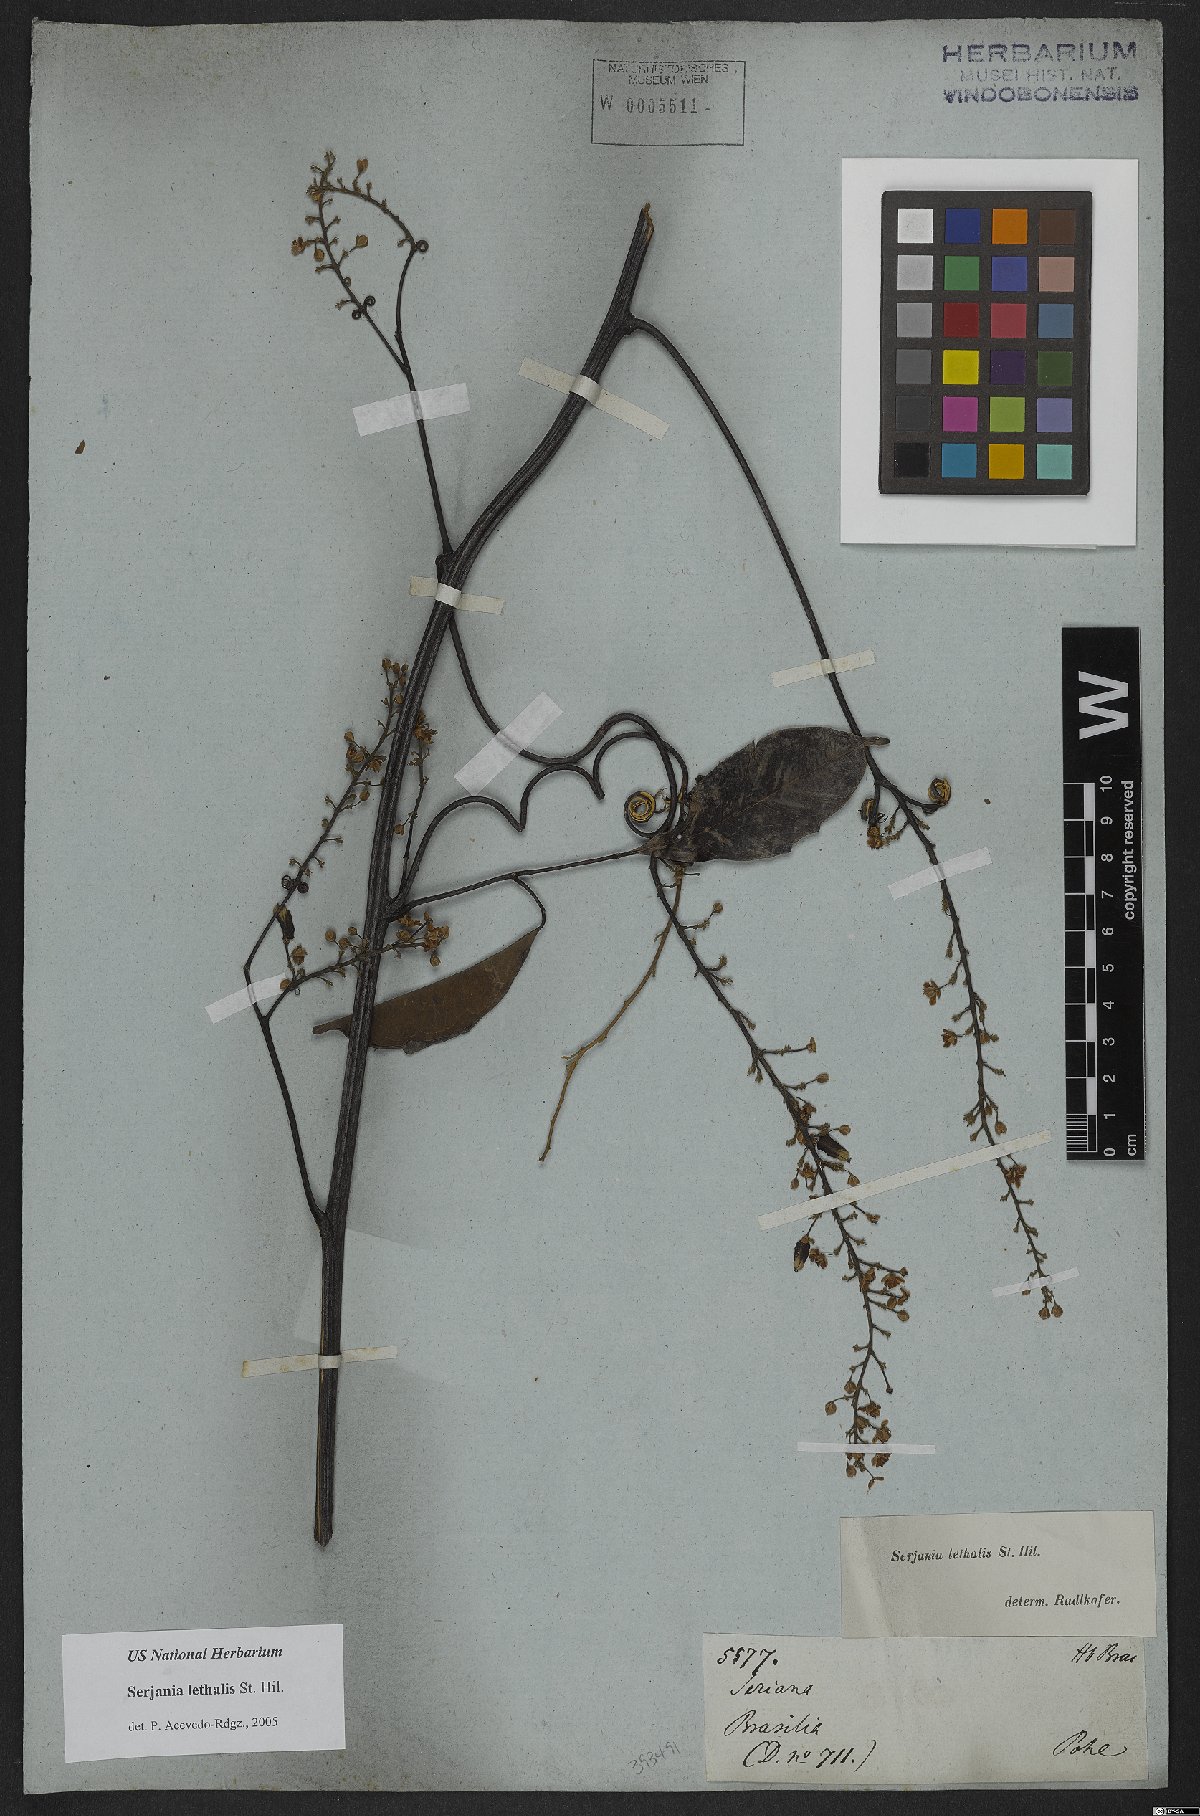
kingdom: Plantae
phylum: Tracheophyta
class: Magnoliopsida
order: Sapindales
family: Sapindaceae
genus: Serjania
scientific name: Serjania lethalis
